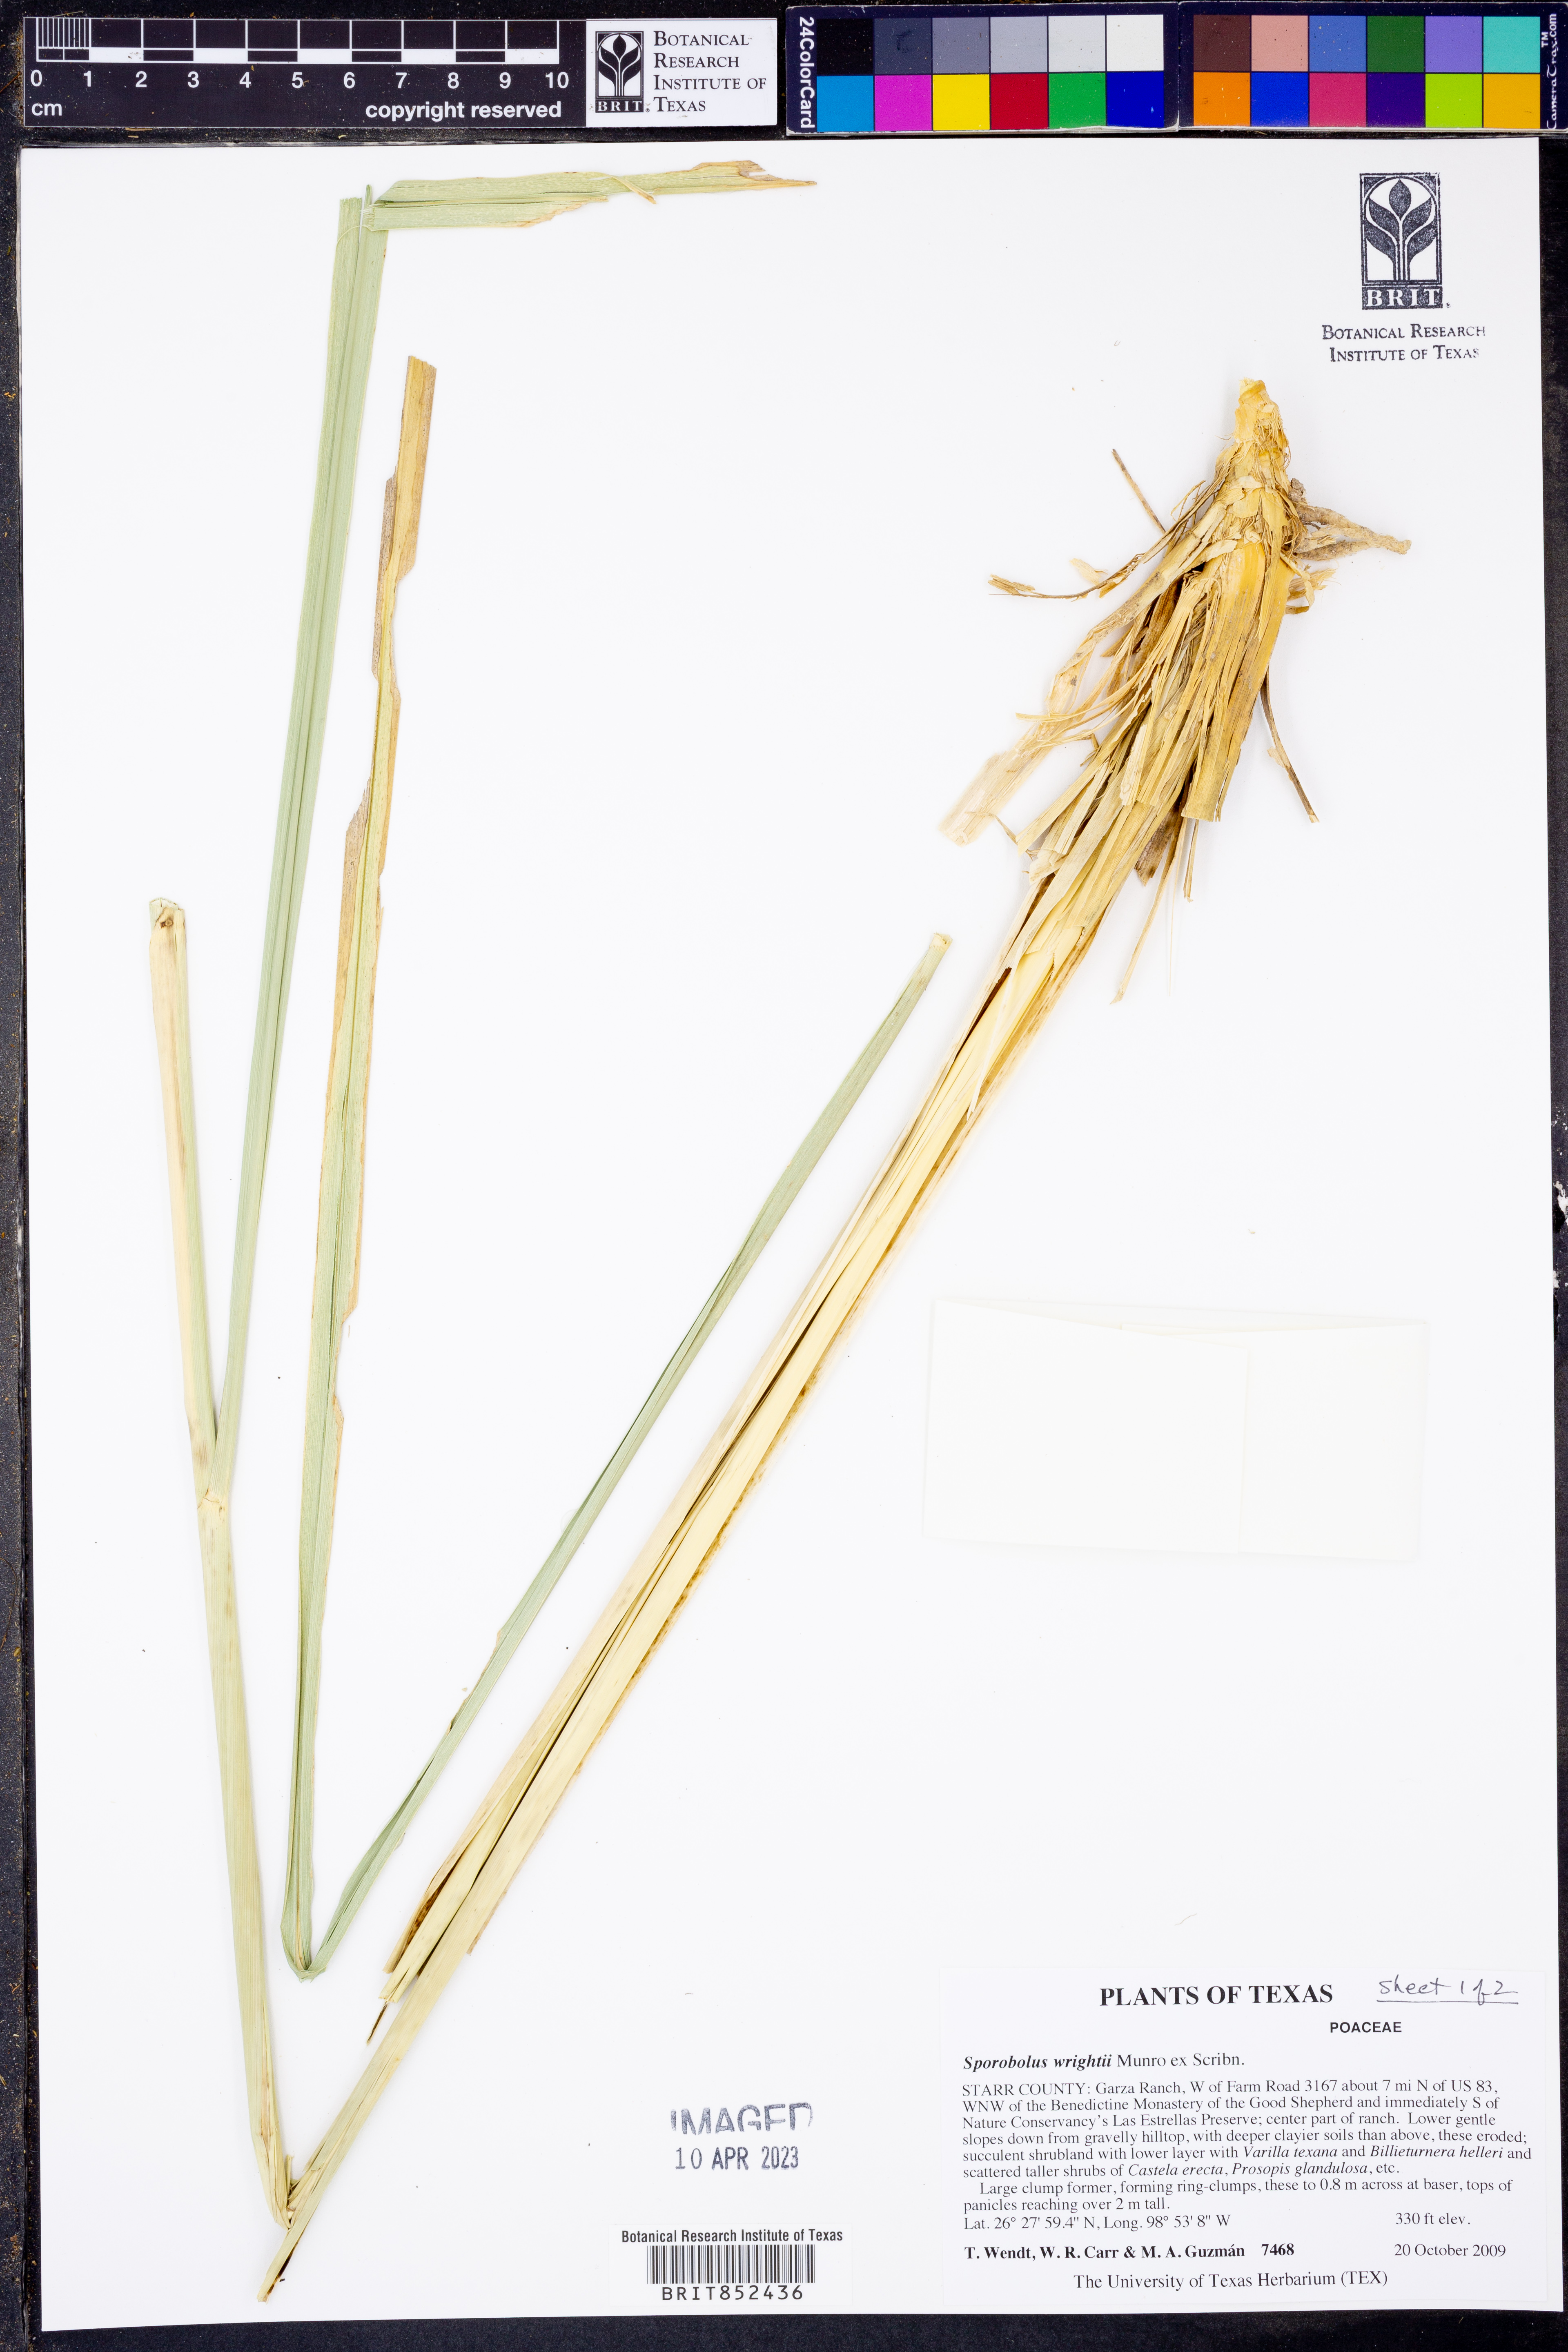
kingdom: Plantae
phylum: Tracheophyta
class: Liliopsida
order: Poales
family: Poaceae
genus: Sporobolus
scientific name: Sporobolus wrightii
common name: Big alkali sacaton
